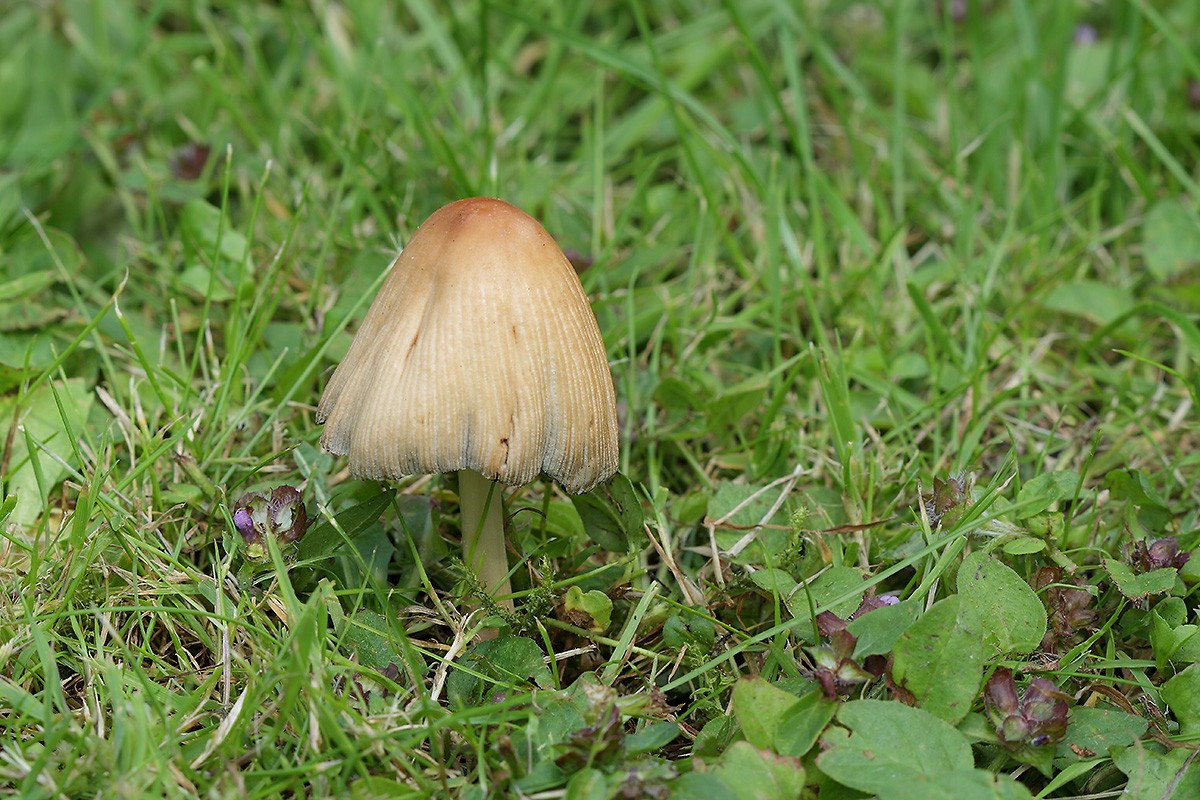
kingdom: Fungi
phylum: Basidiomycota
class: Agaricomycetes
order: Agaricales
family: Psathyrellaceae
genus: Coprinellus
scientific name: Coprinellus xanthothrix
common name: gultrådet blækhat
